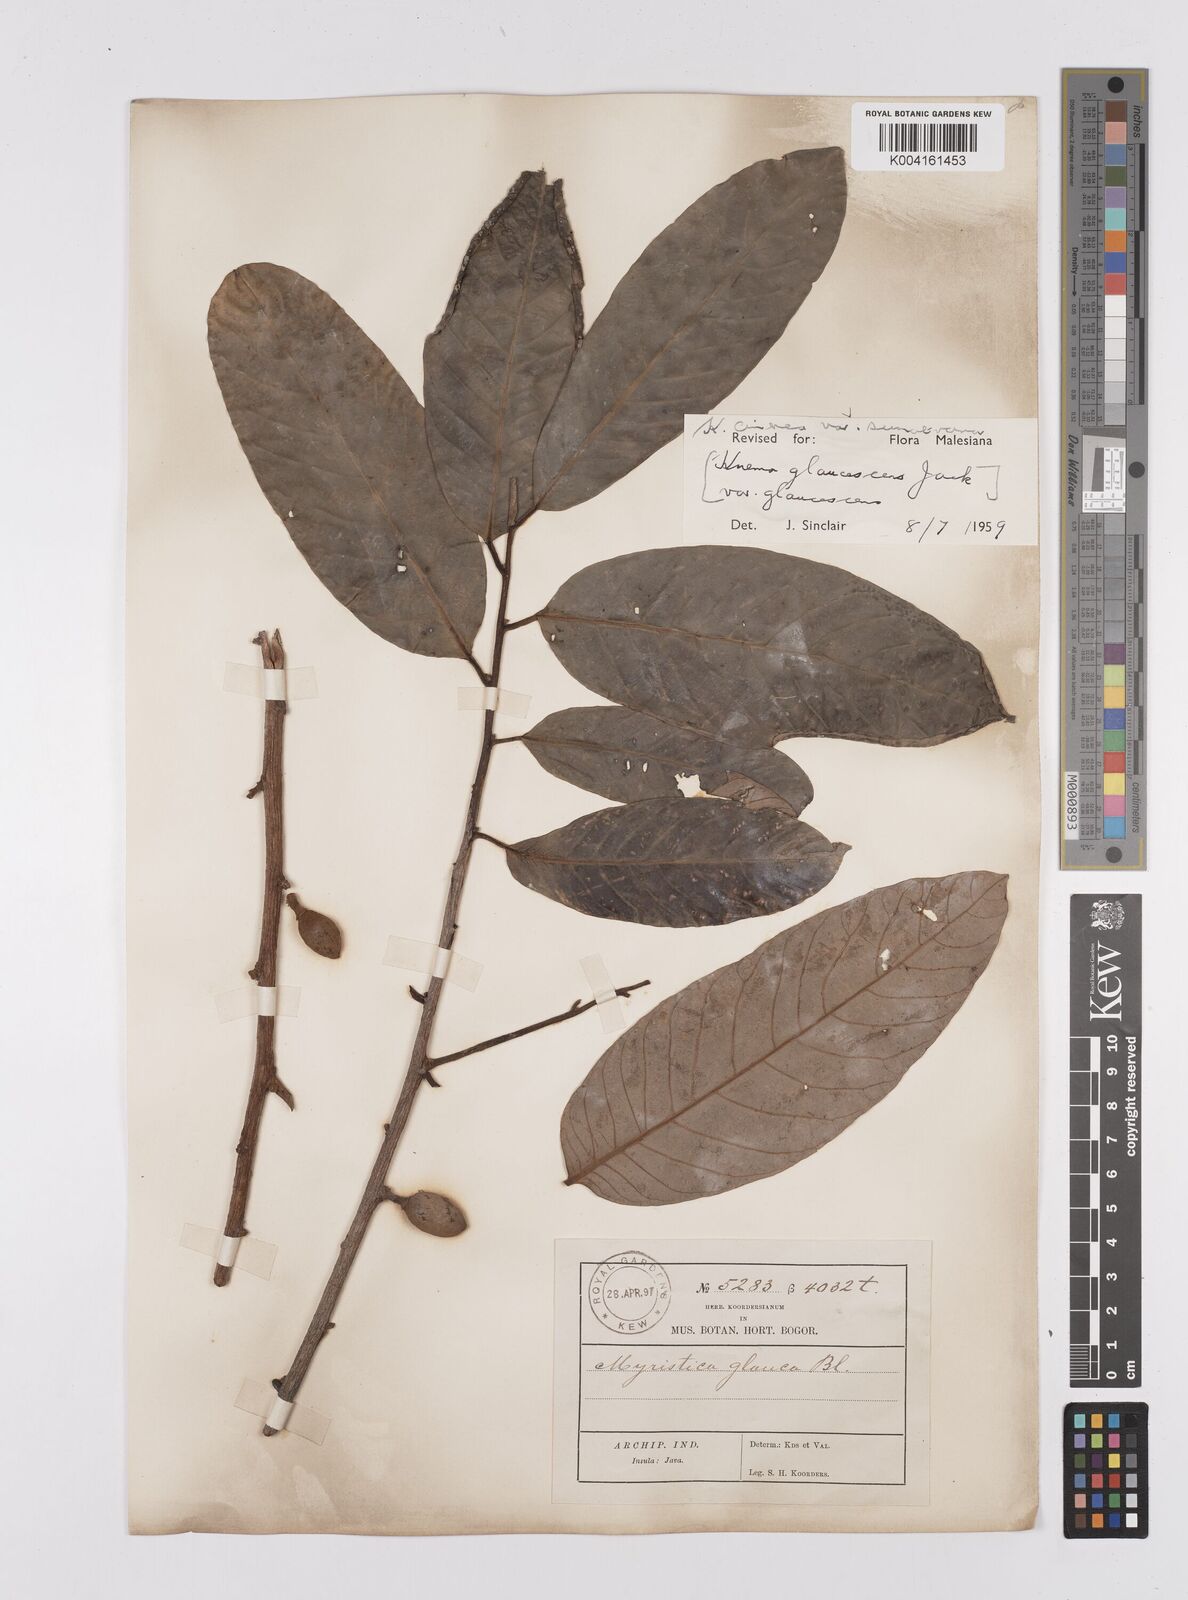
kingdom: Plantae
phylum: Tracheophyta
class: Magnoliopsida
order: Magnoliales
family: Myristicaceae
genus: Knema
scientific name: Knema
